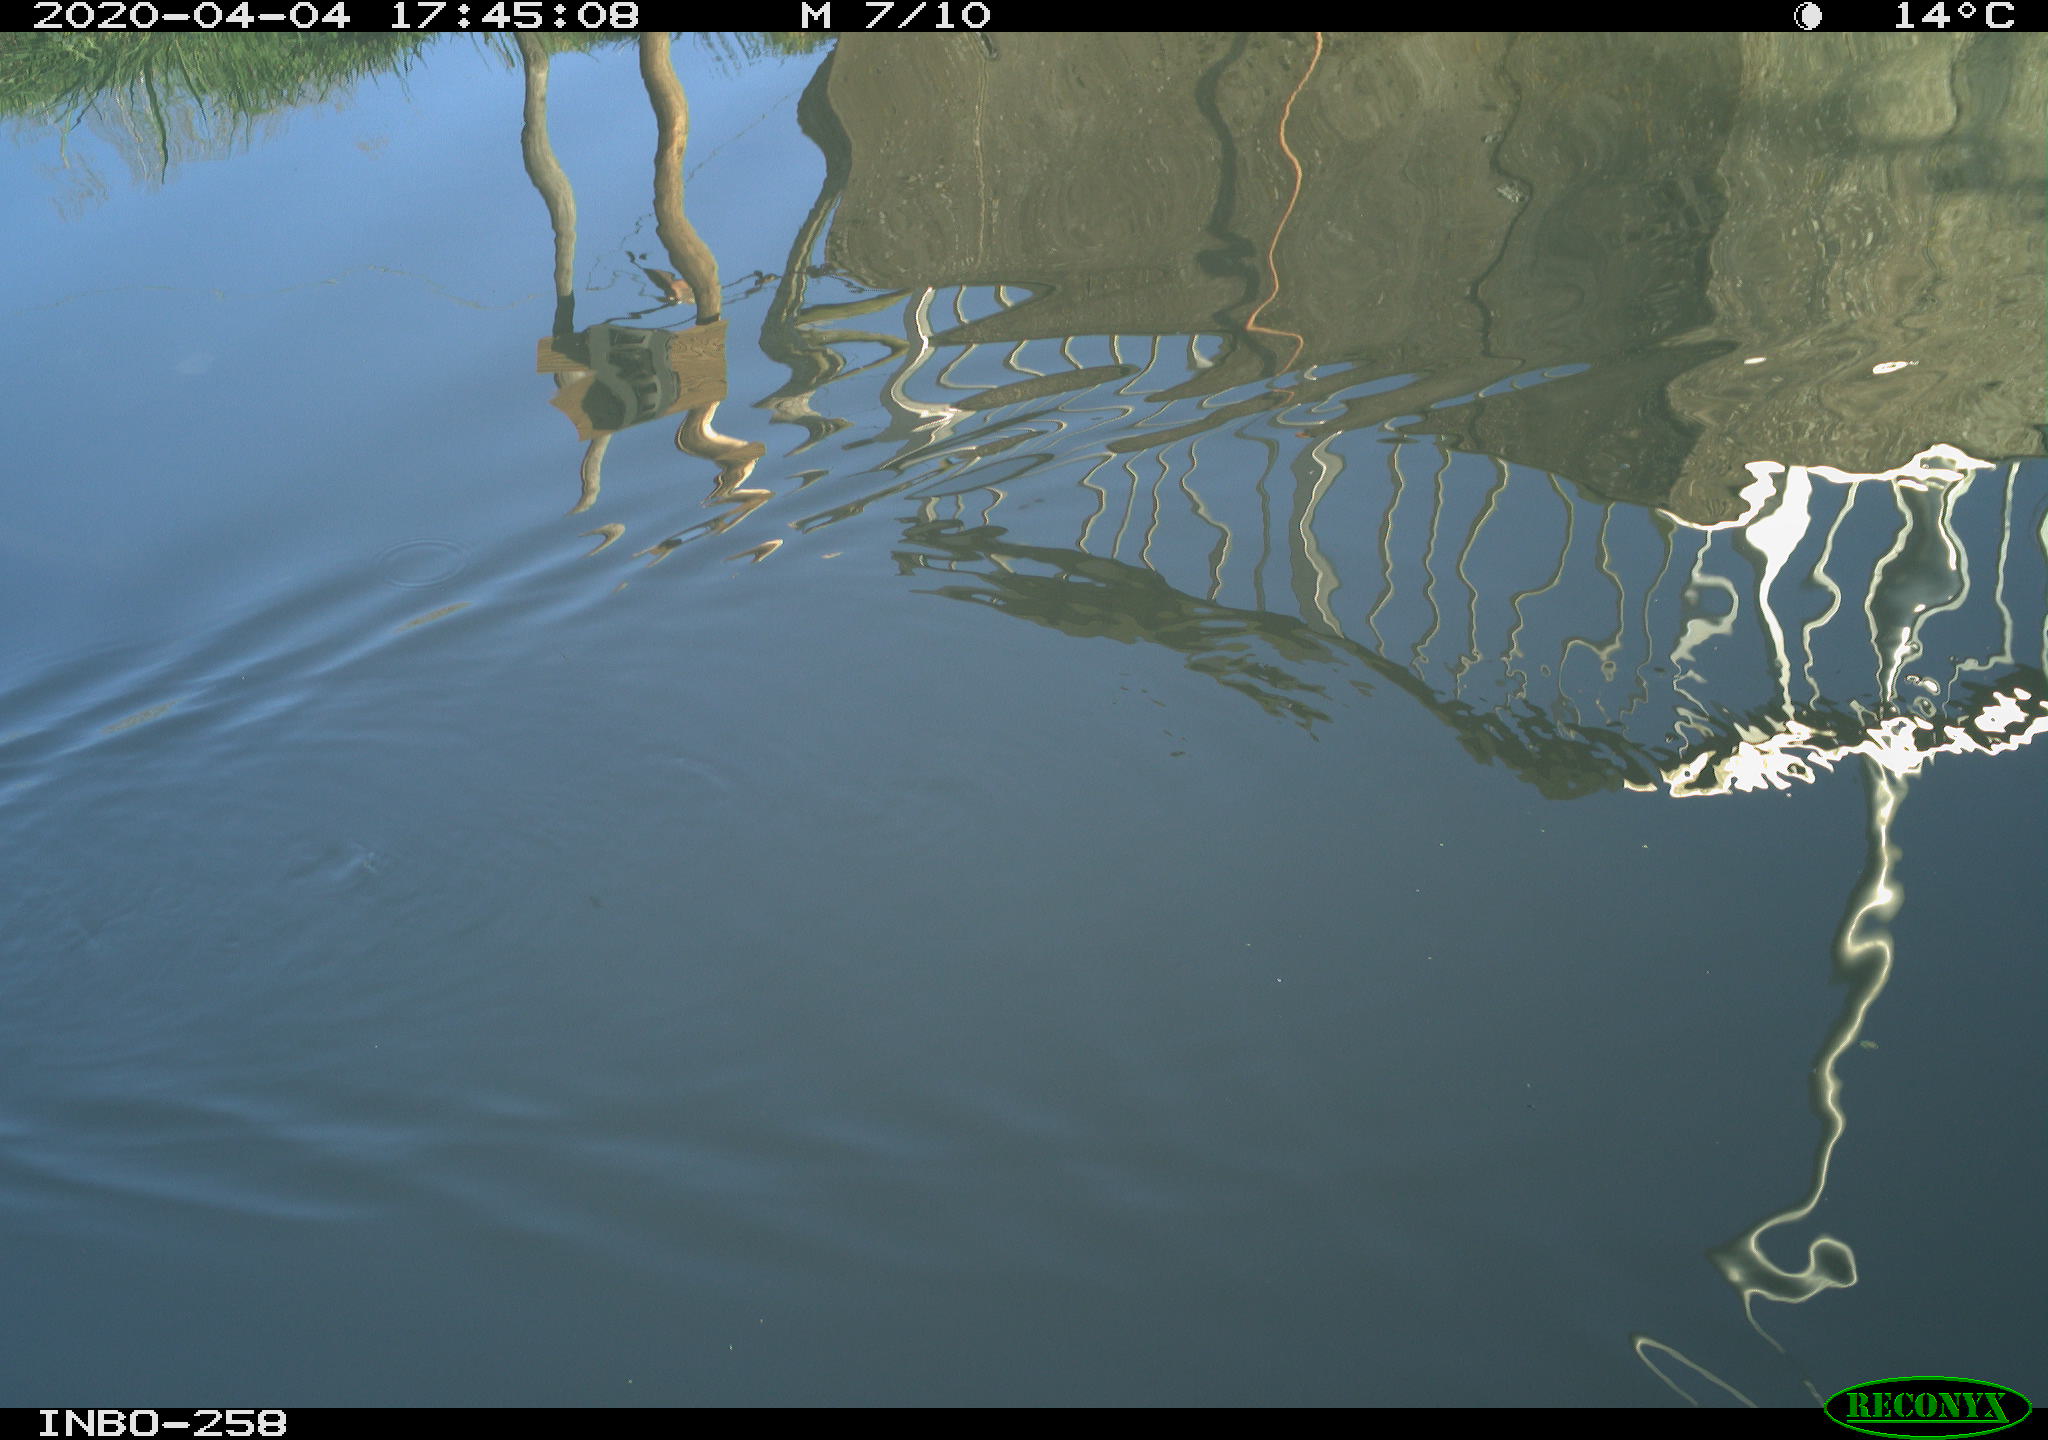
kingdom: Animalia
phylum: Chordata
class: Aves
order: Anseriformes
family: Anatidae
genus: Anas
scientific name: Anas platyrhynchos
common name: Mallard
